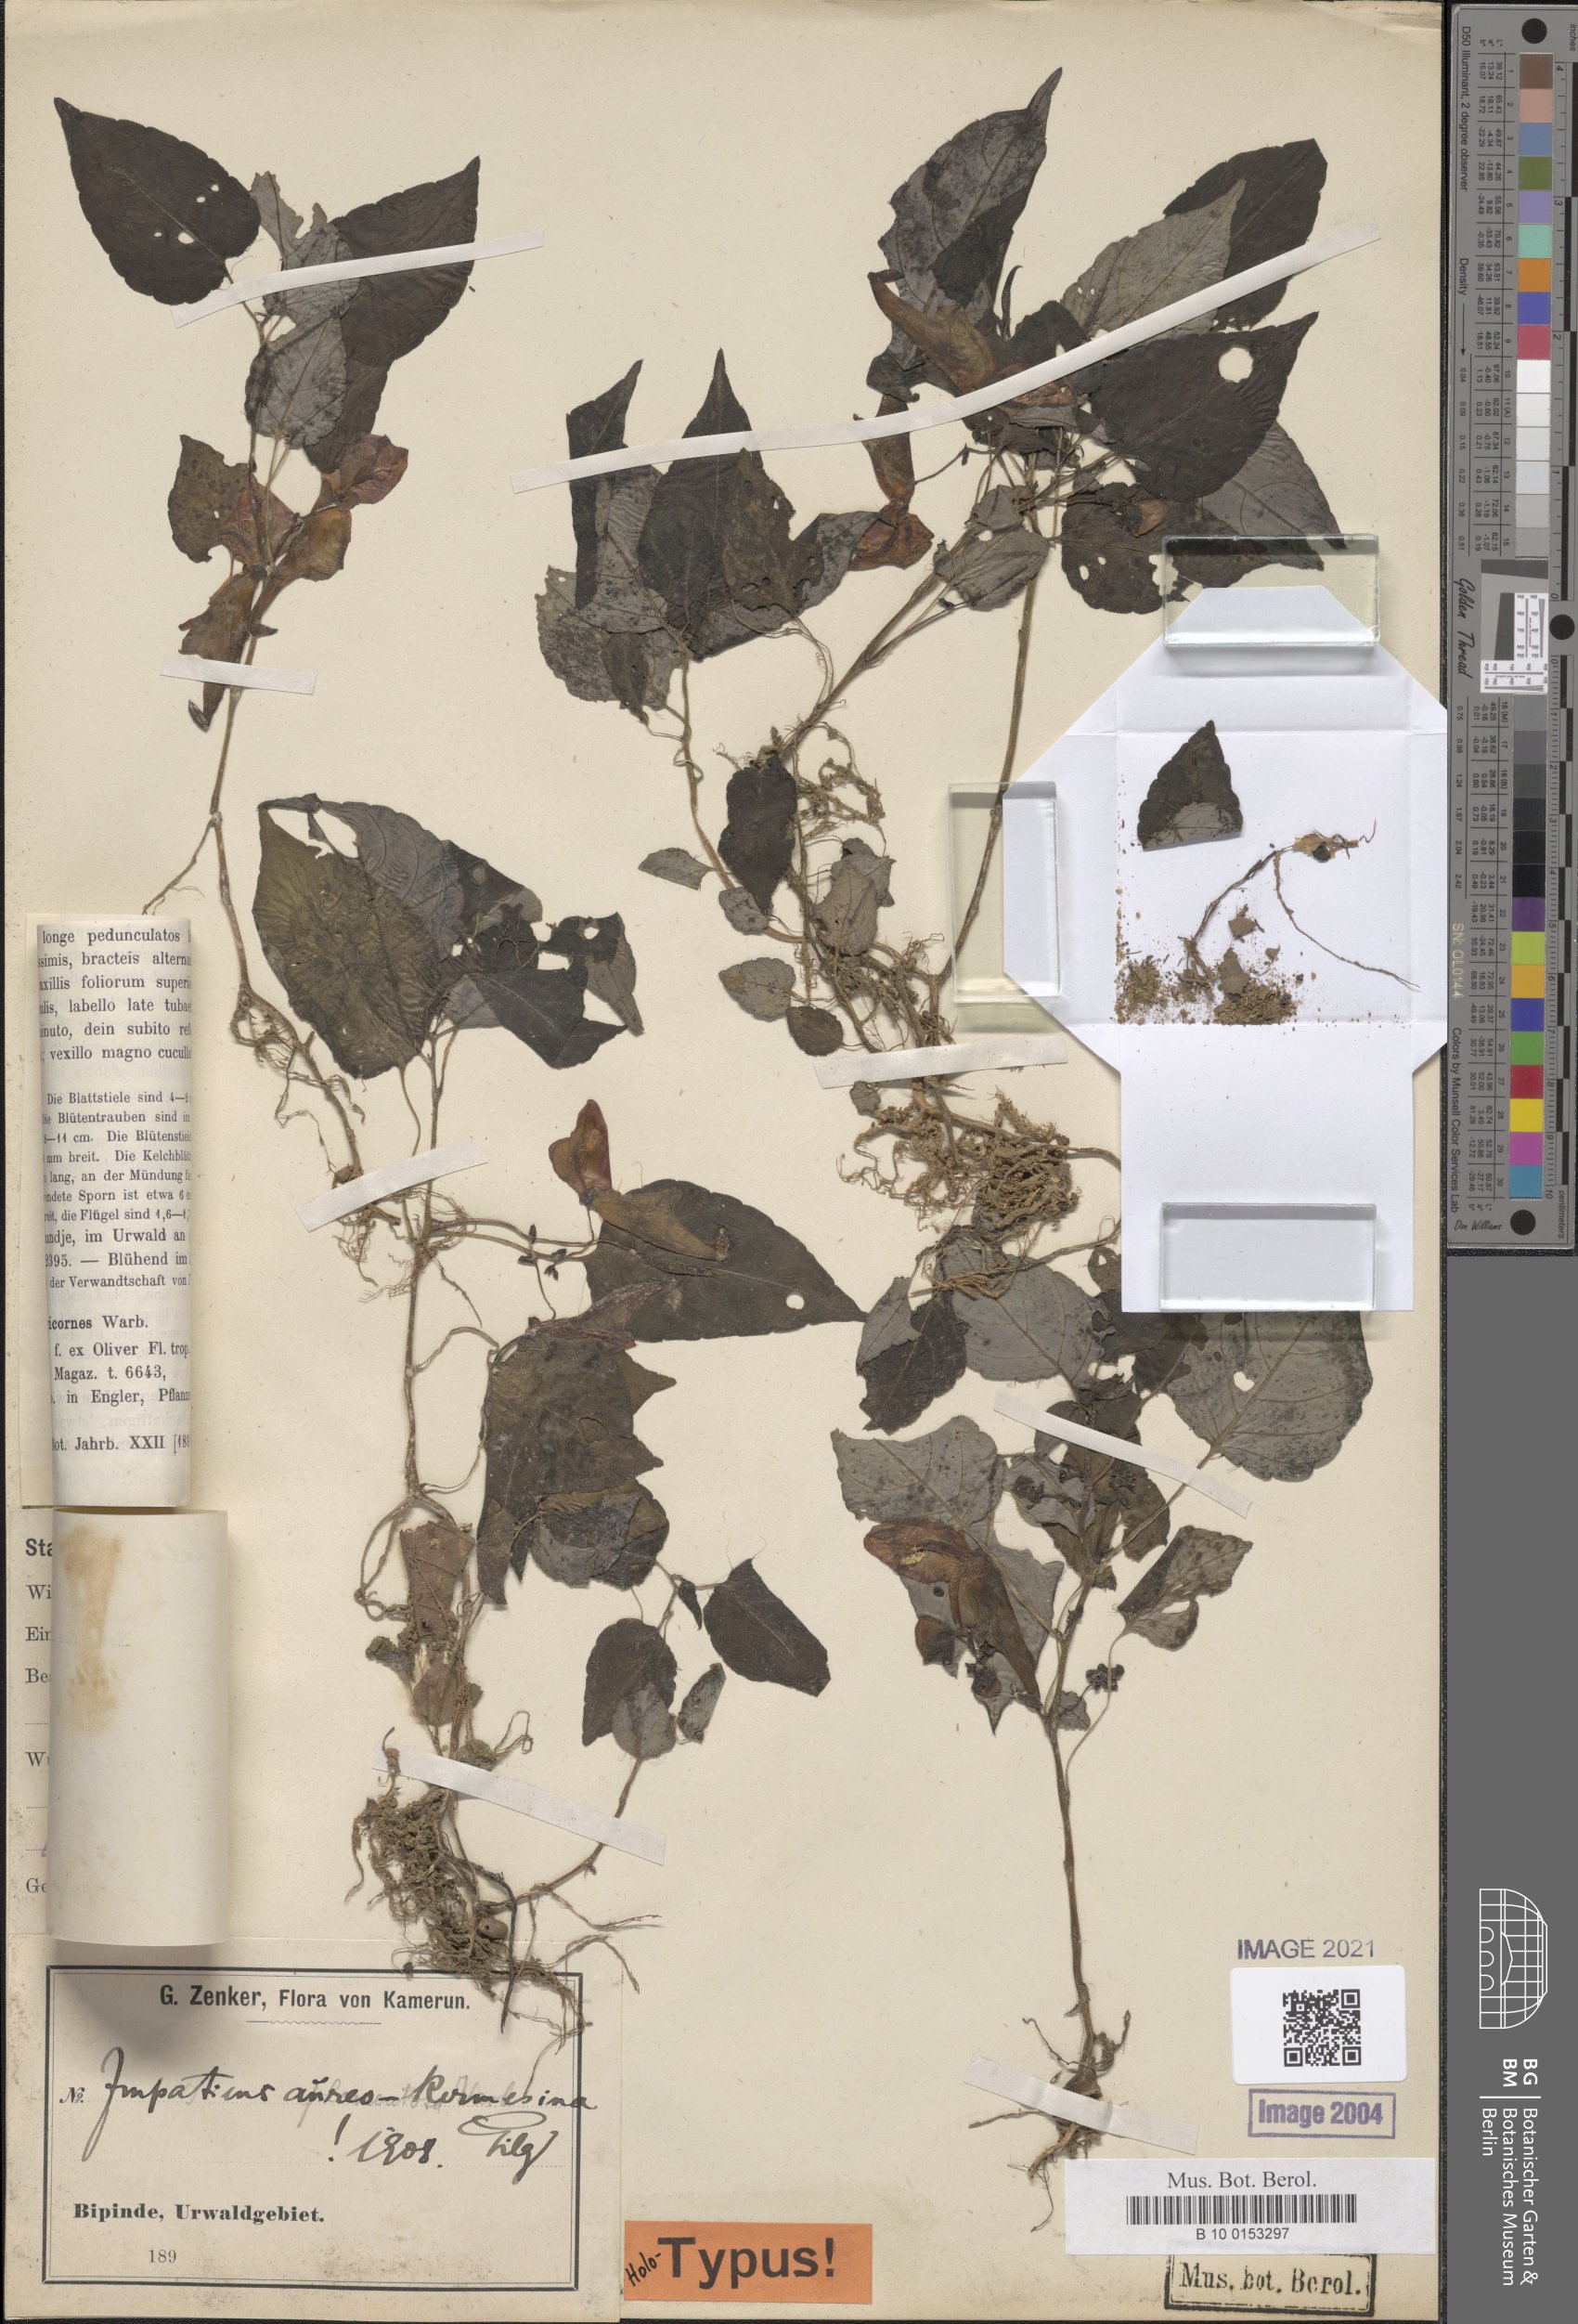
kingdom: Plantae
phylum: Tracheophyta
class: Magnoliopsida
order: Ericales
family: Balsaminaceae
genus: Impatiens
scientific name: Impatiens hians
